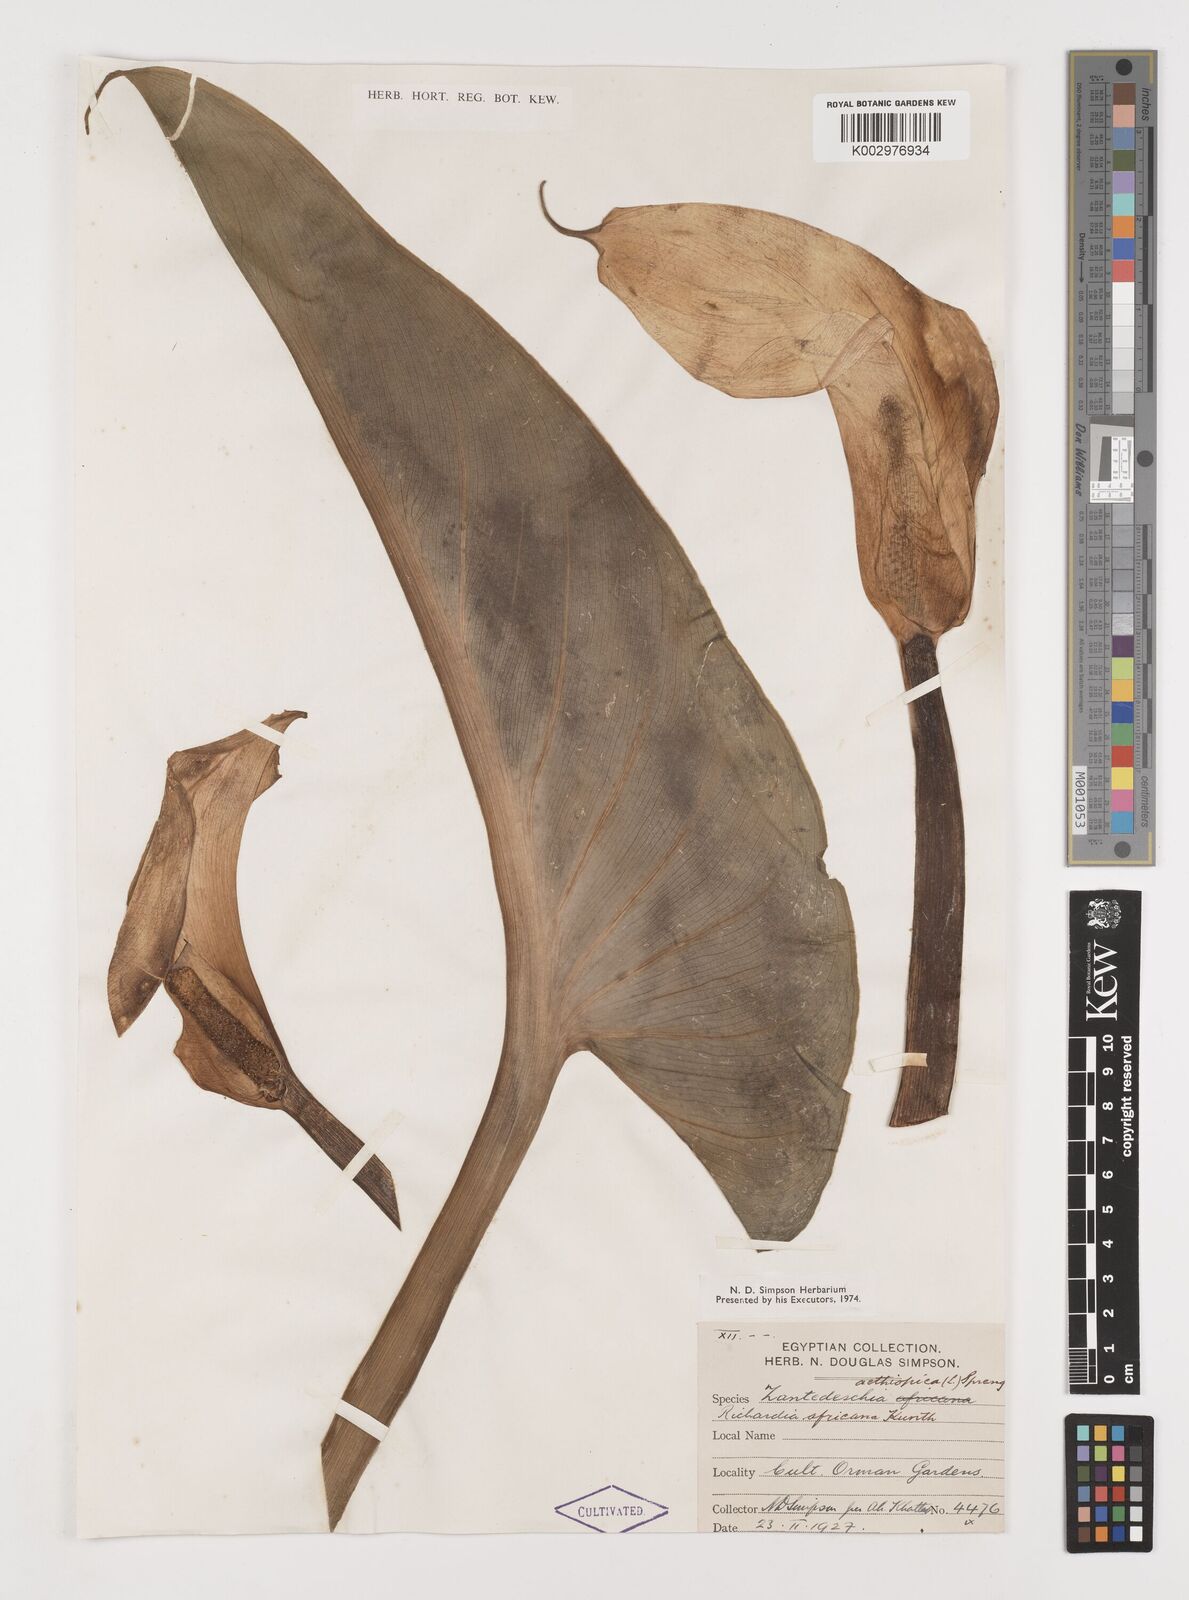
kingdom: Plantae
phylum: Tracheophyta
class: Liliopsida
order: Alismatales
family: Araceae
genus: Zantedeschia
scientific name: Zantedeschia aethiopica
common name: Altar-lily
